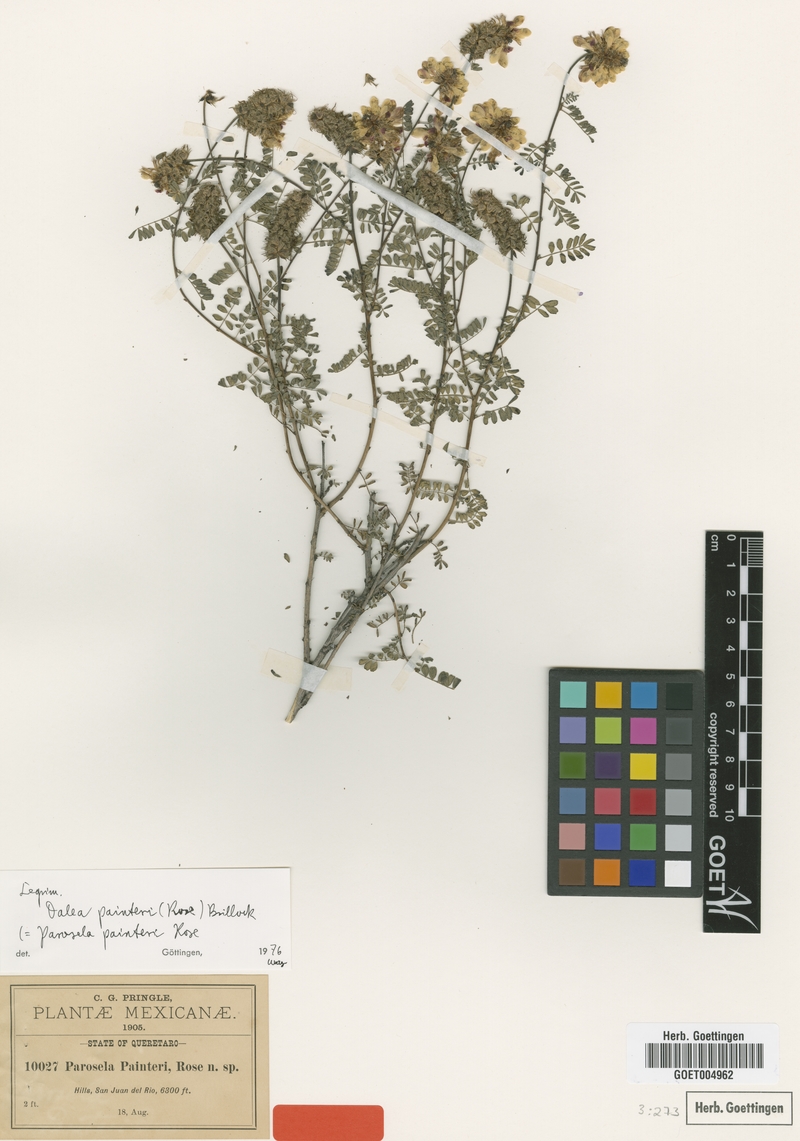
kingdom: Plantae
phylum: Tracheophyta
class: Magnoliopsida
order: Fabales
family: Fabaceae
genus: Dalea
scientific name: Dalea lutea
